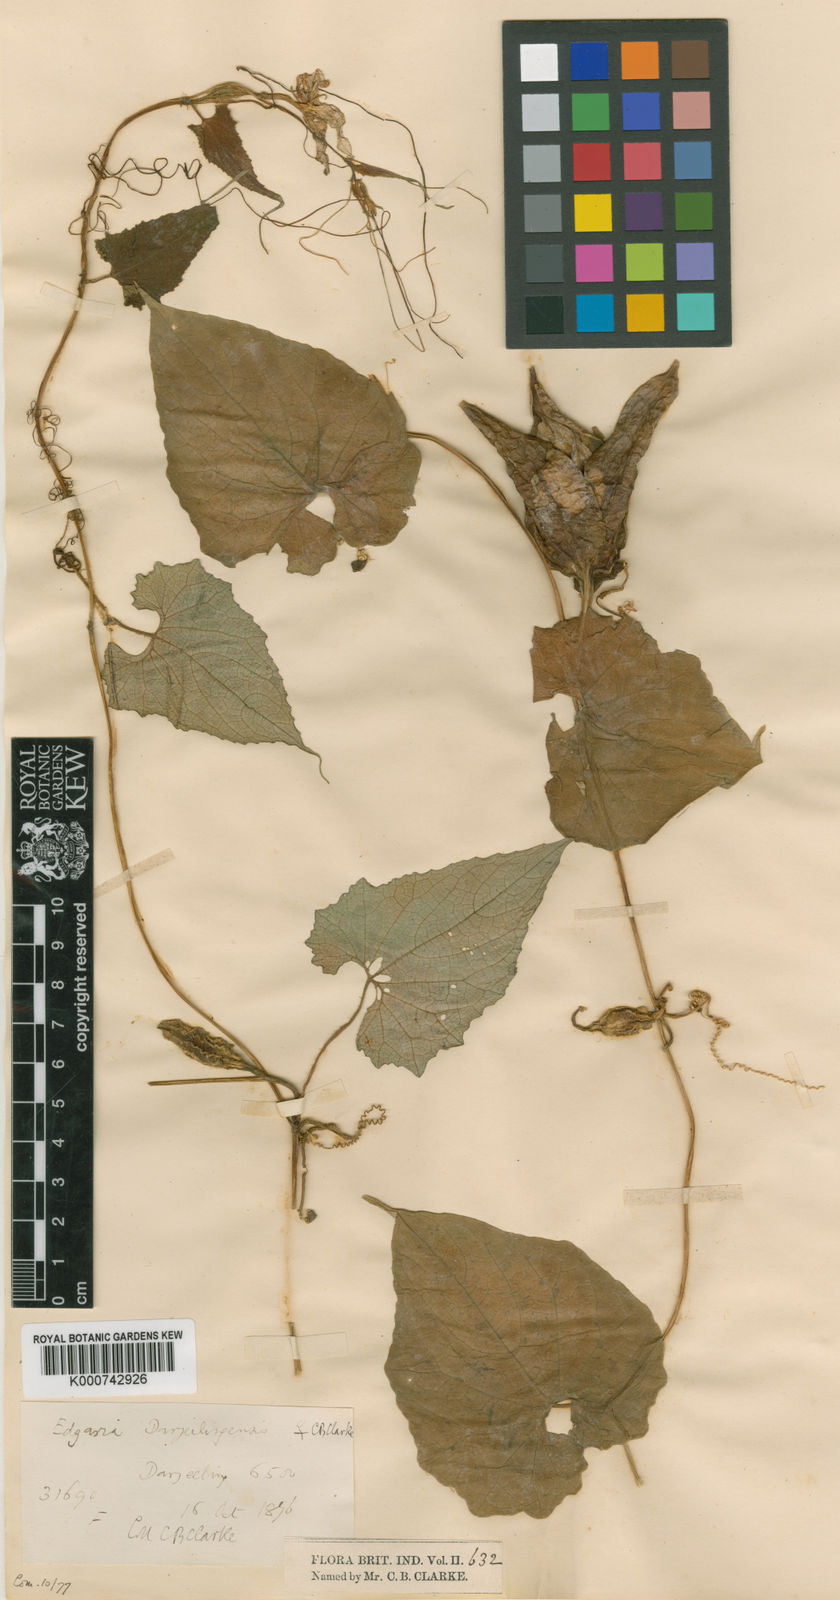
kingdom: Plantae
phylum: Tracheophyta
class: Magnoliopsida
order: Cucurbitales
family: Cucurbitaceae
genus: Herpetospermum
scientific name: Herpetospermum darjeelingense
